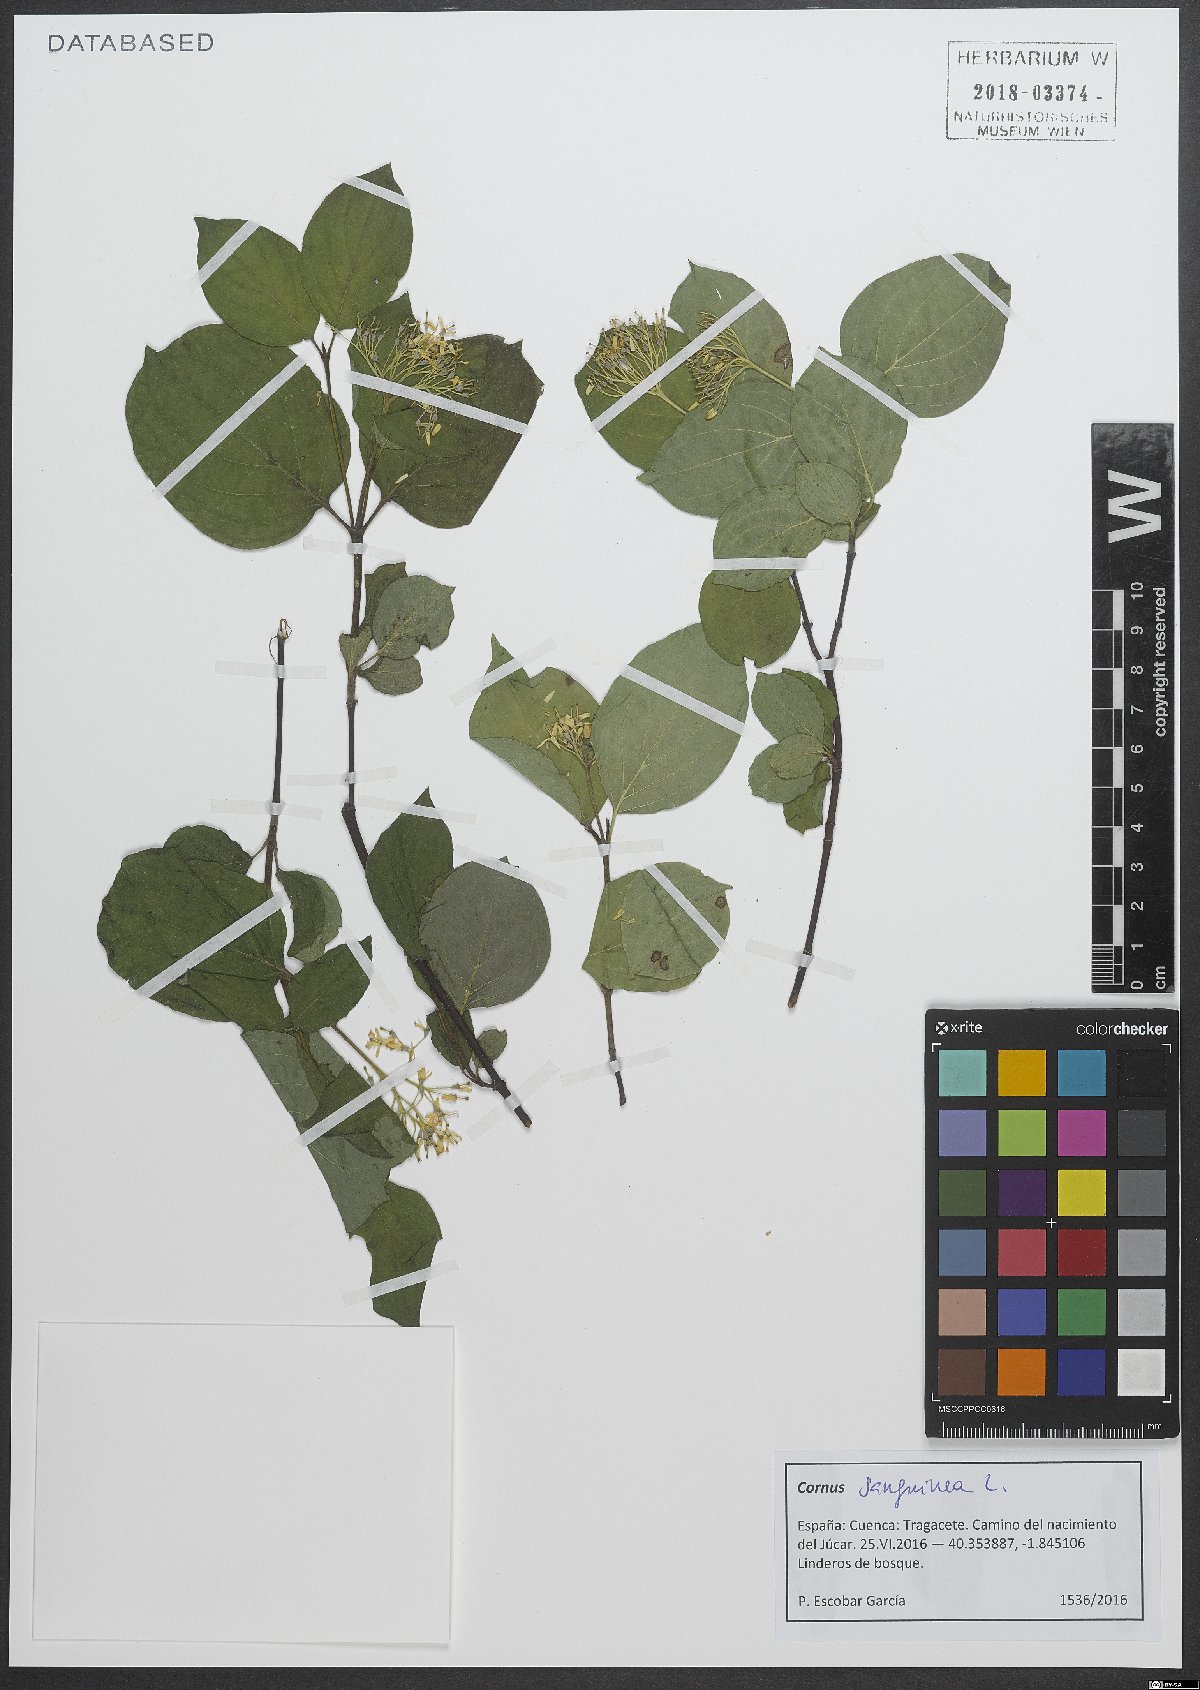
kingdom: Plantae
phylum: Tracheophyta
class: Magnoliopsida
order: Cornales
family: Cornaceae
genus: Cornus
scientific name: Cornus sanguinea
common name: Dogwood
